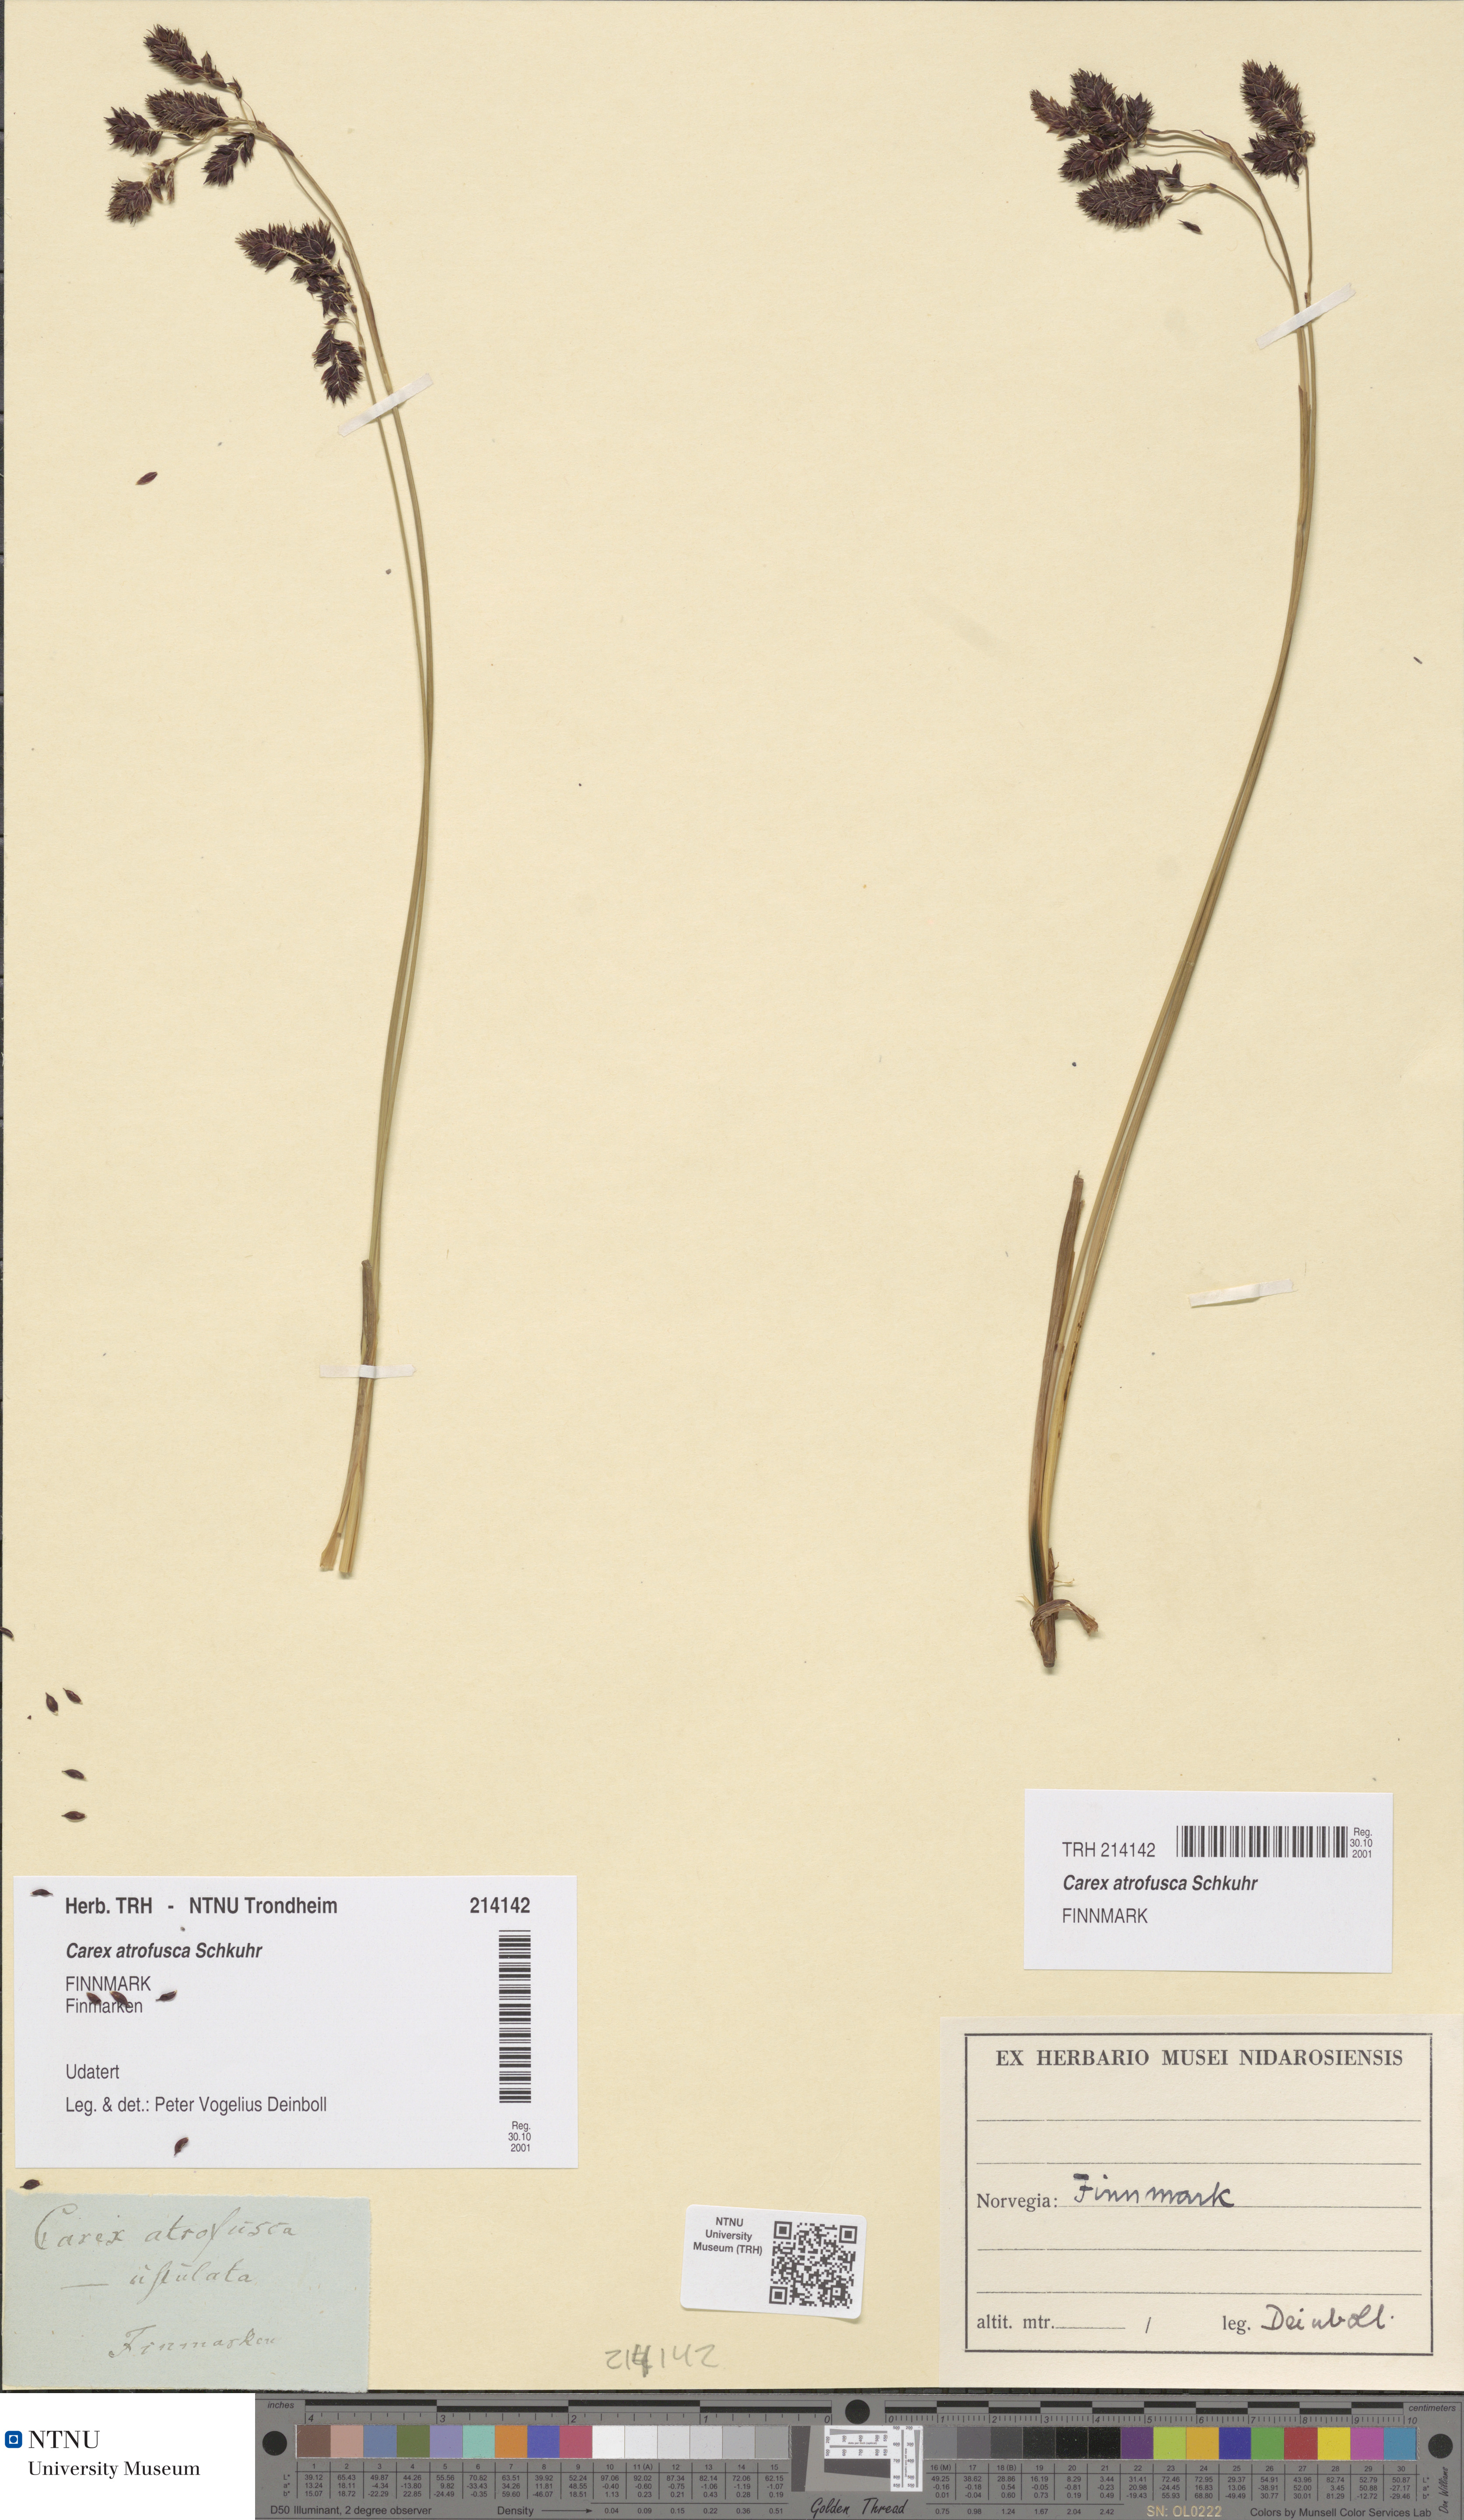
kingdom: Plantae
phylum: Tracheophyta
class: Liliopsida
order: Poales
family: Cyperaceae
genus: Carex
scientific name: Carex atrofusca
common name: Scorched alpine-sedge
